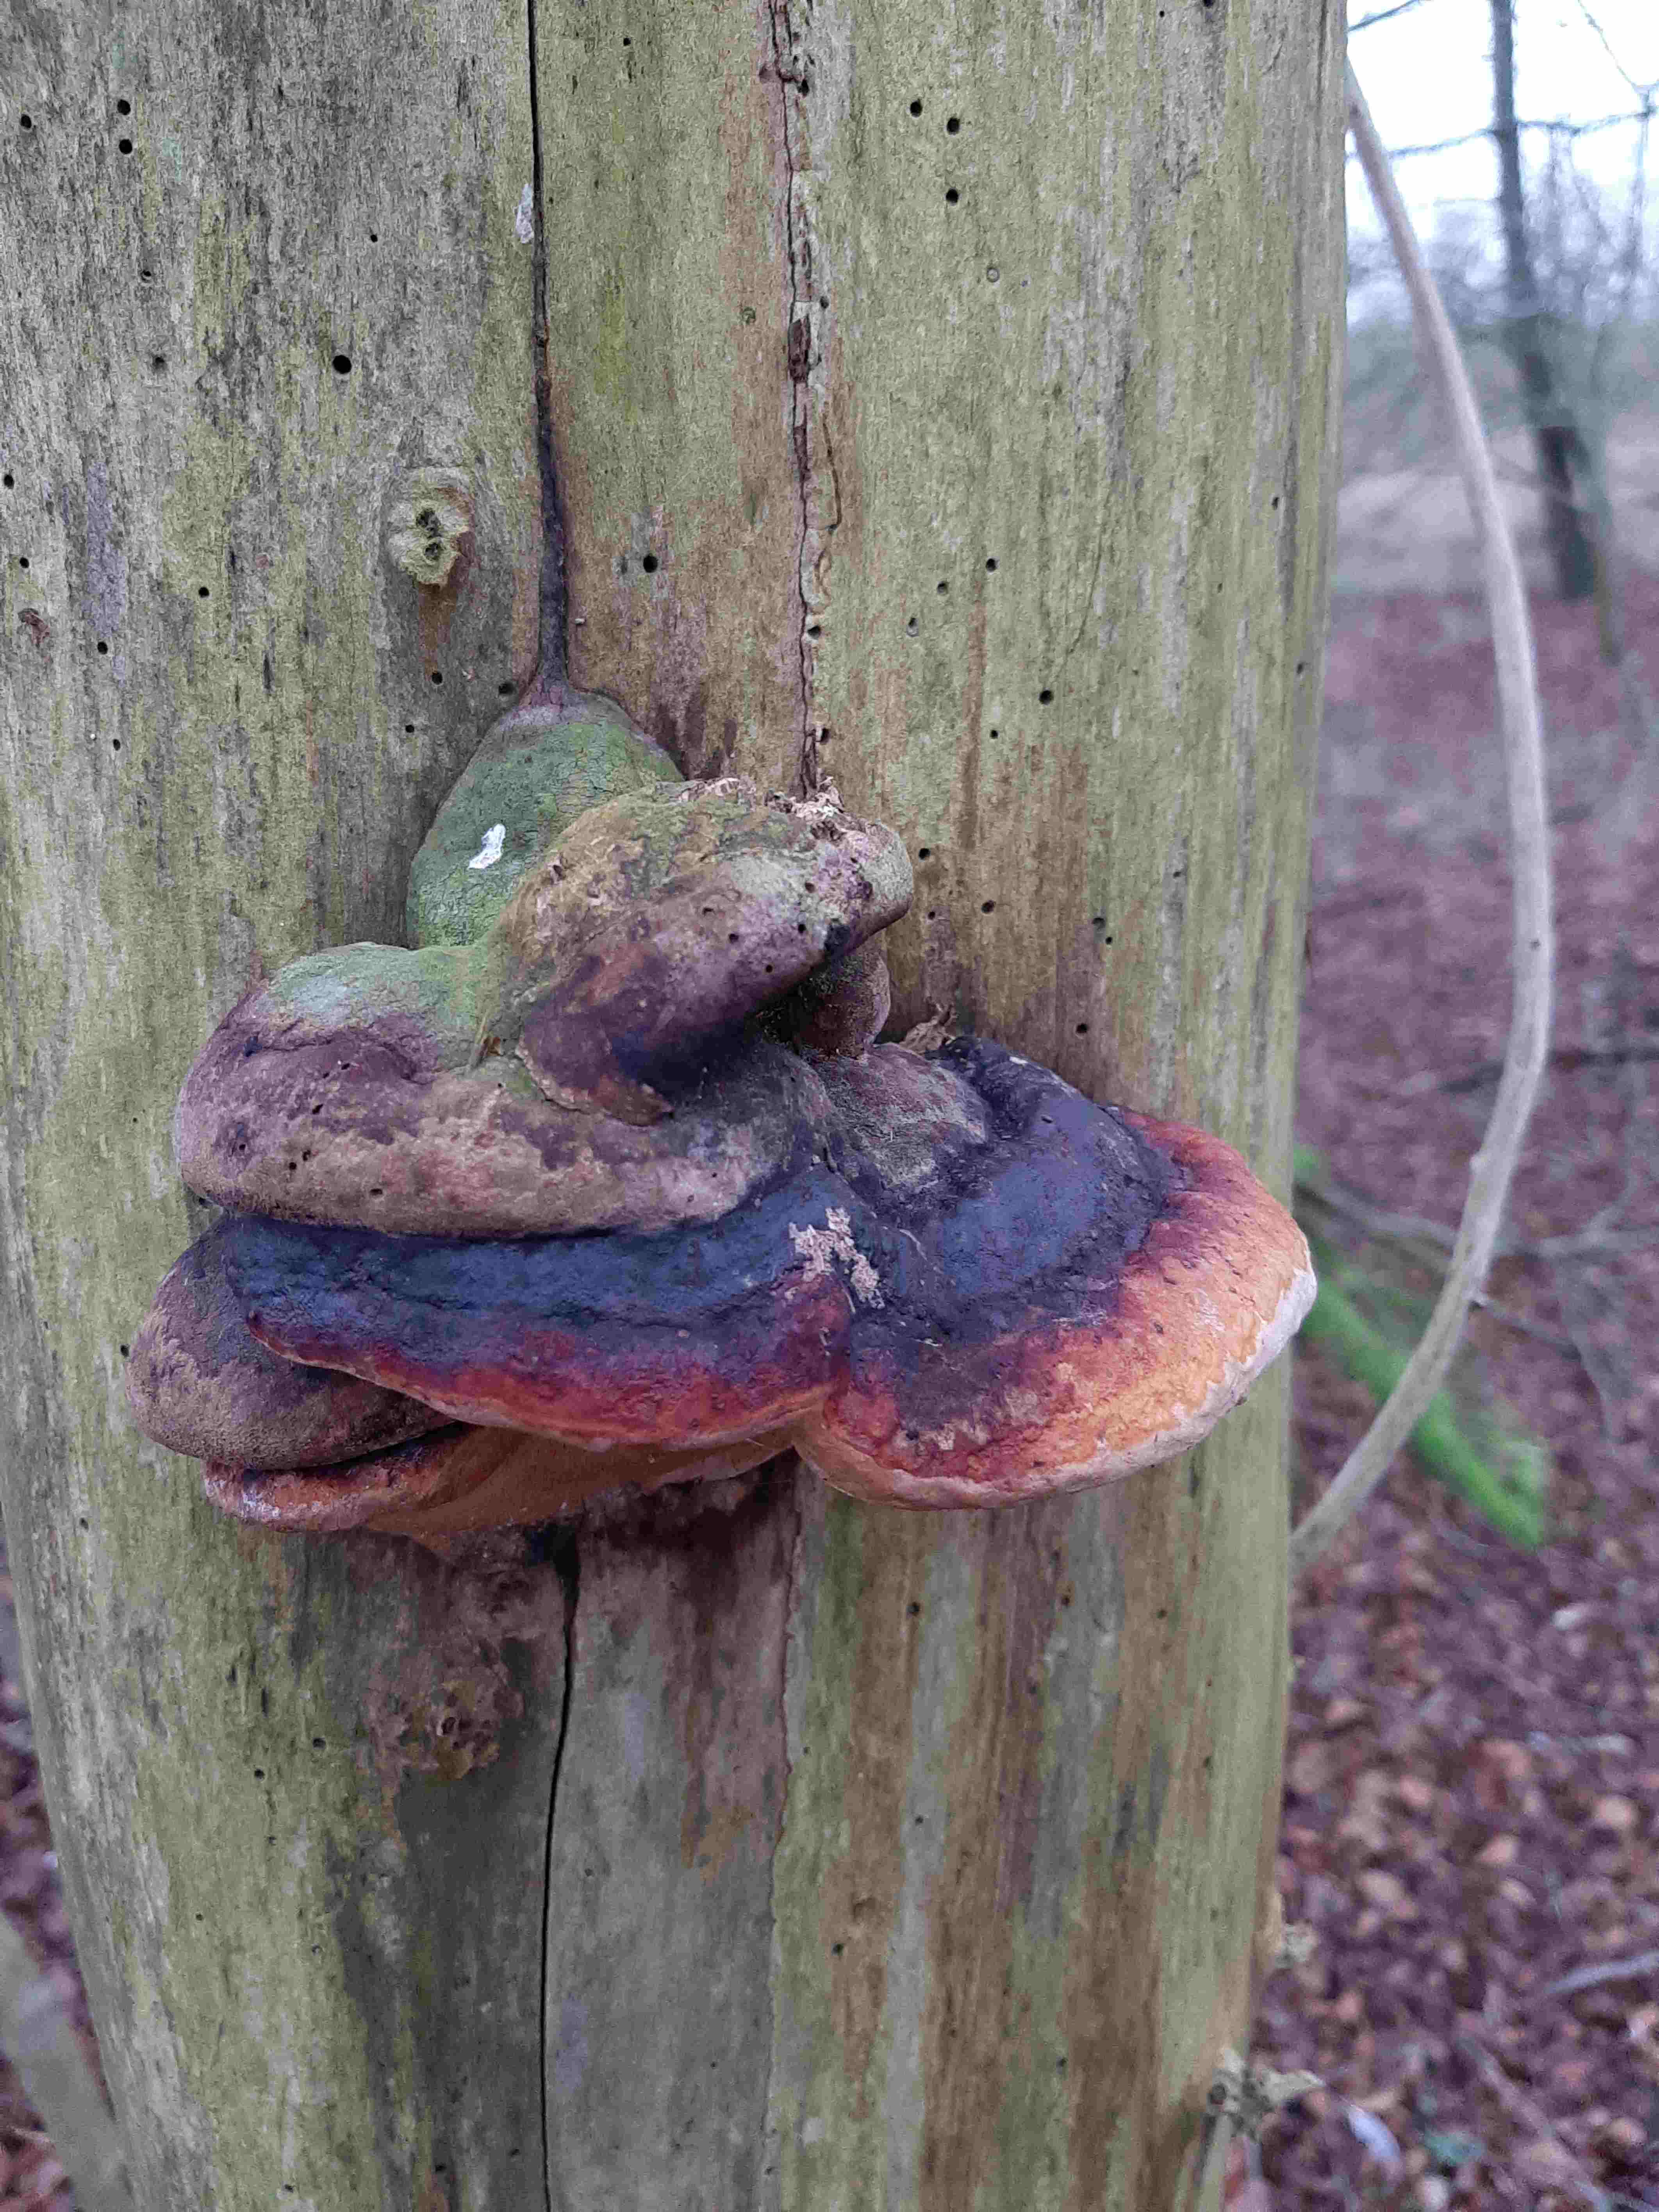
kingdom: Fungi
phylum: Basidiomycota
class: Agaricomycetes
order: Polyporales
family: Fomitopsidaceae
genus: Fomitopsis
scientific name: Fomitopsis pinicola
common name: randbæltet hovporesvamp
